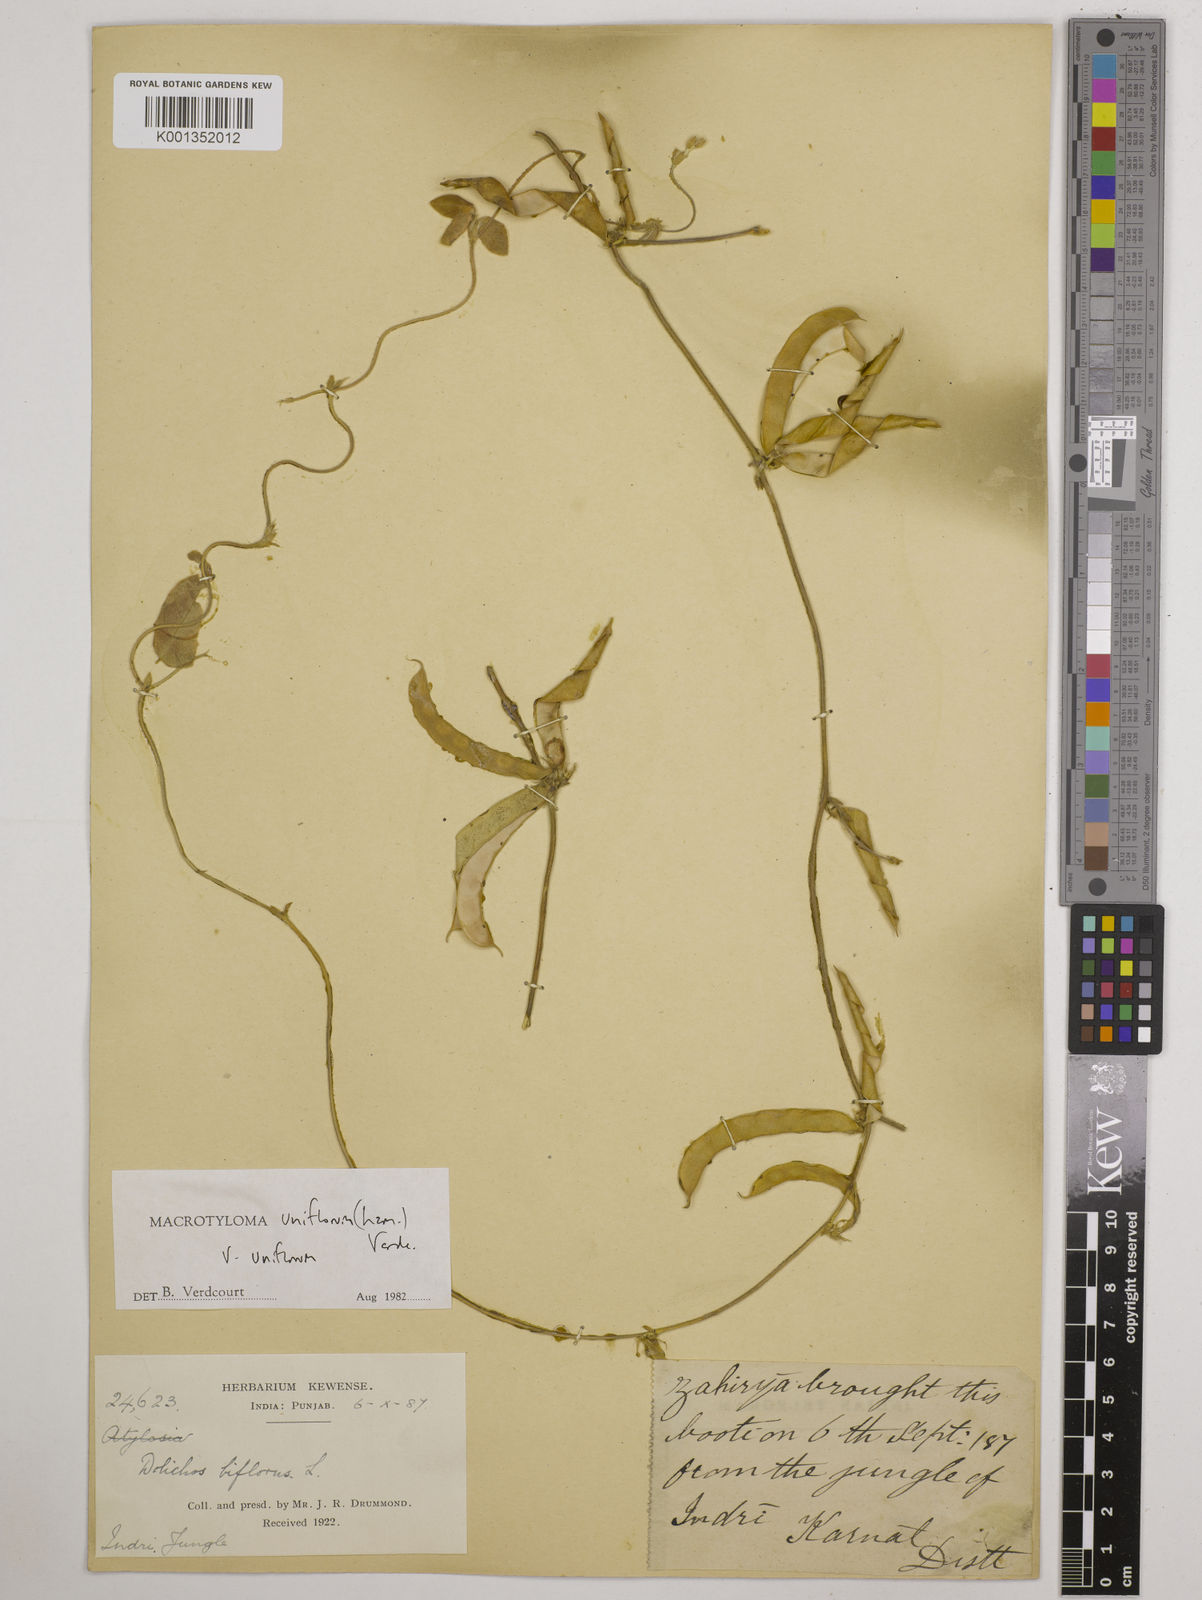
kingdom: Plantae
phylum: Tracheophyta
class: Magnoliopsida
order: Fabales
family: Fabaceae
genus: Macrotyloma
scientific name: Macrotyloma uniflorum
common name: Horse gram
